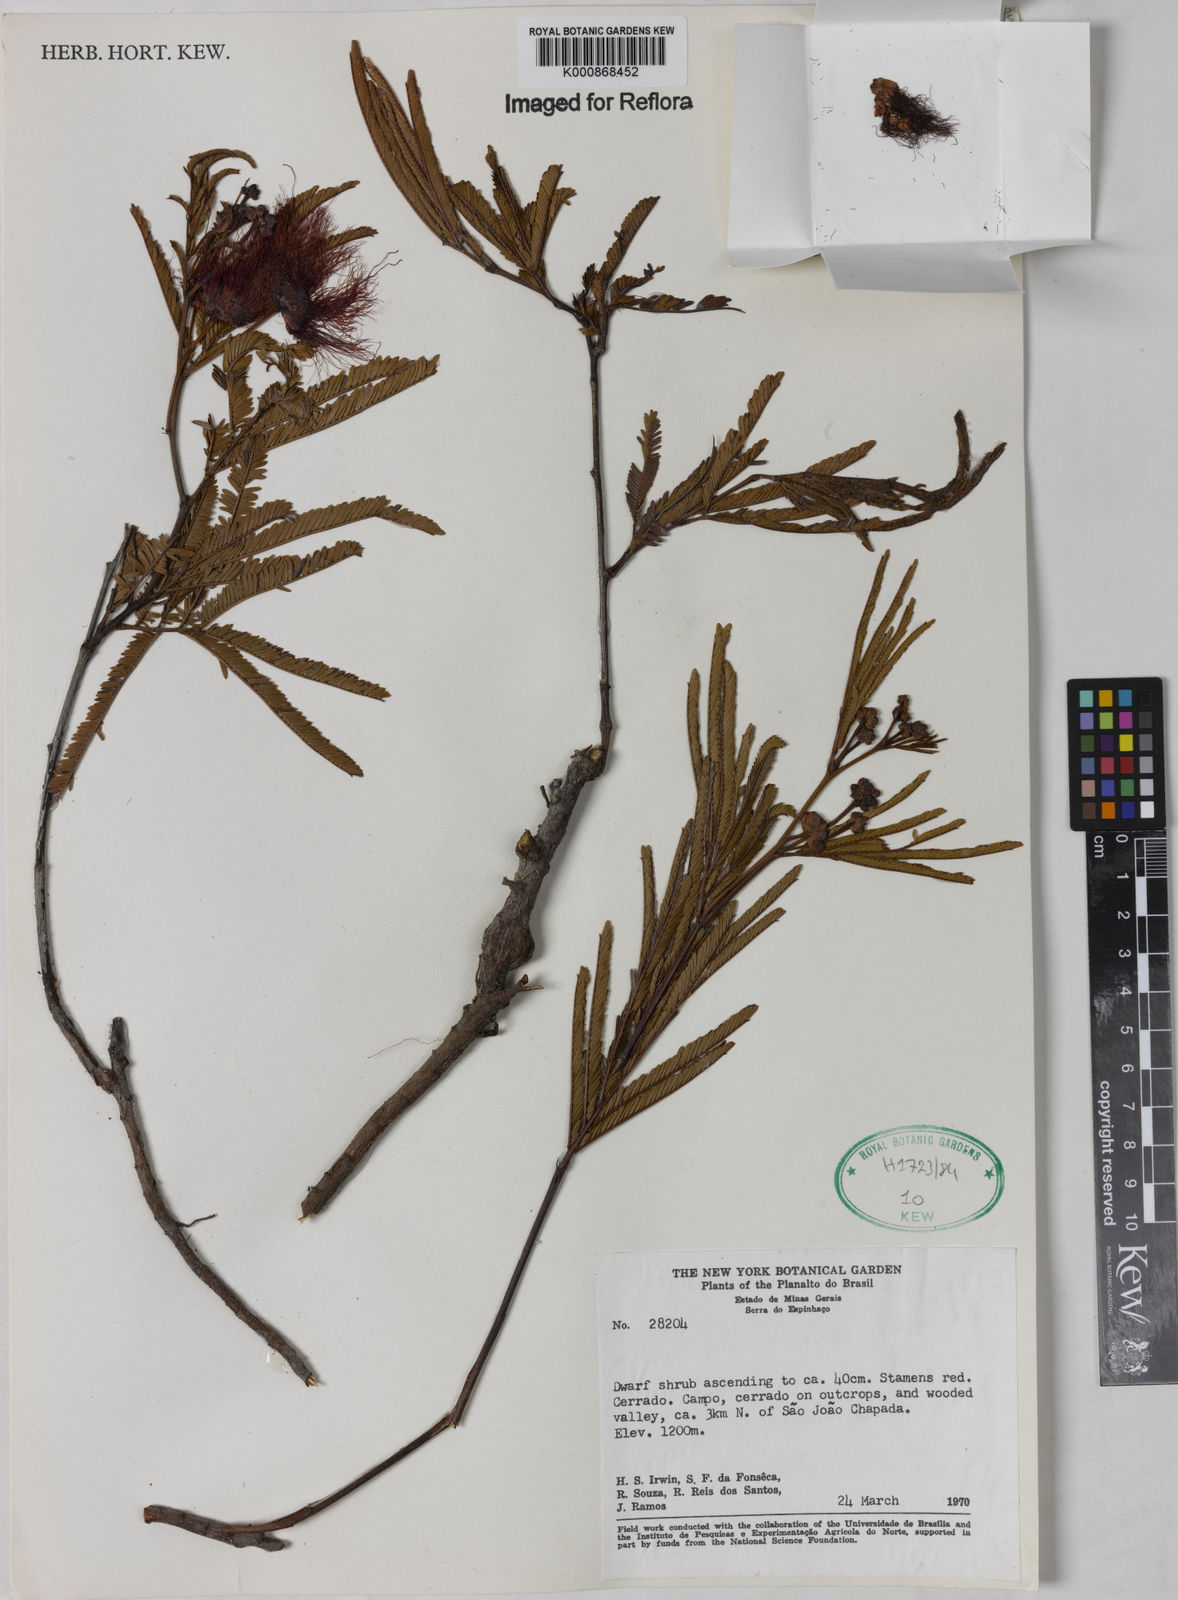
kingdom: Plantae
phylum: Tracheophyta
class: Magnoliopsida
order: Fabales
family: Fabaceae
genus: Calliandra
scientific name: Calliandra linearis
